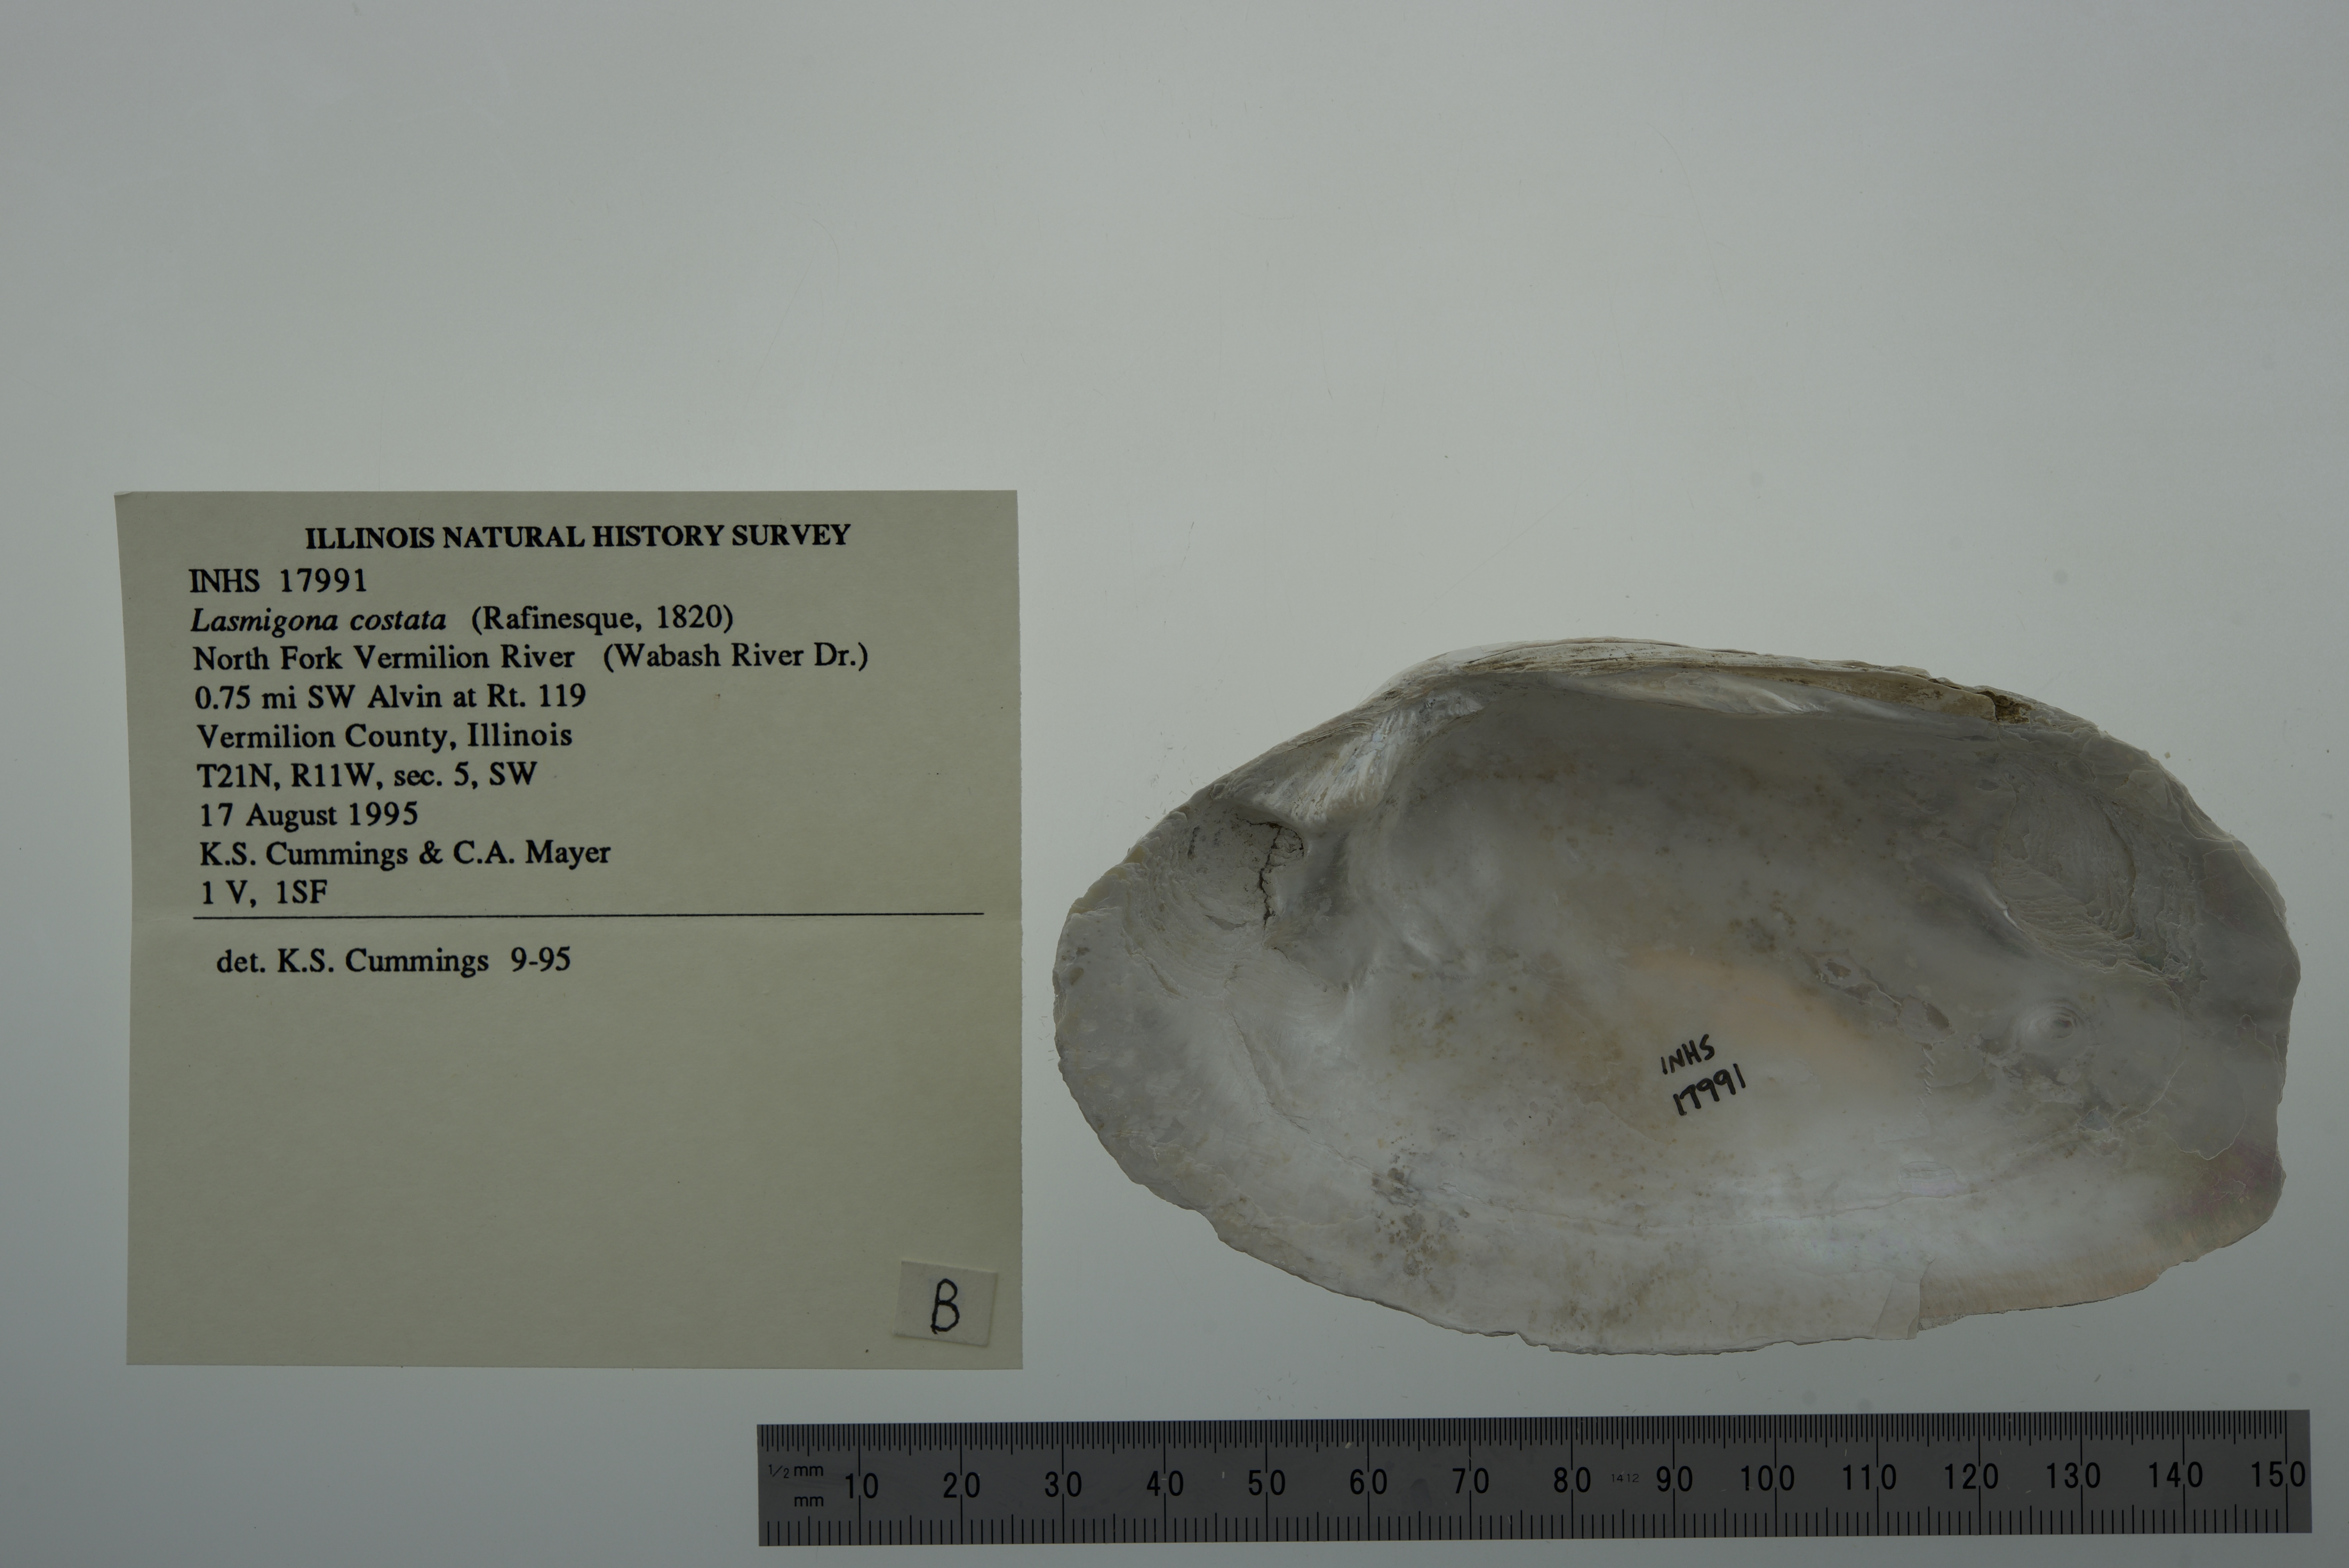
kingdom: Animalia
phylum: Mollusca
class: Bivalvia
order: Unionida
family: Unionidae
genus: Lasmigona
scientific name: Lasmigona costata
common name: Flutedshell
